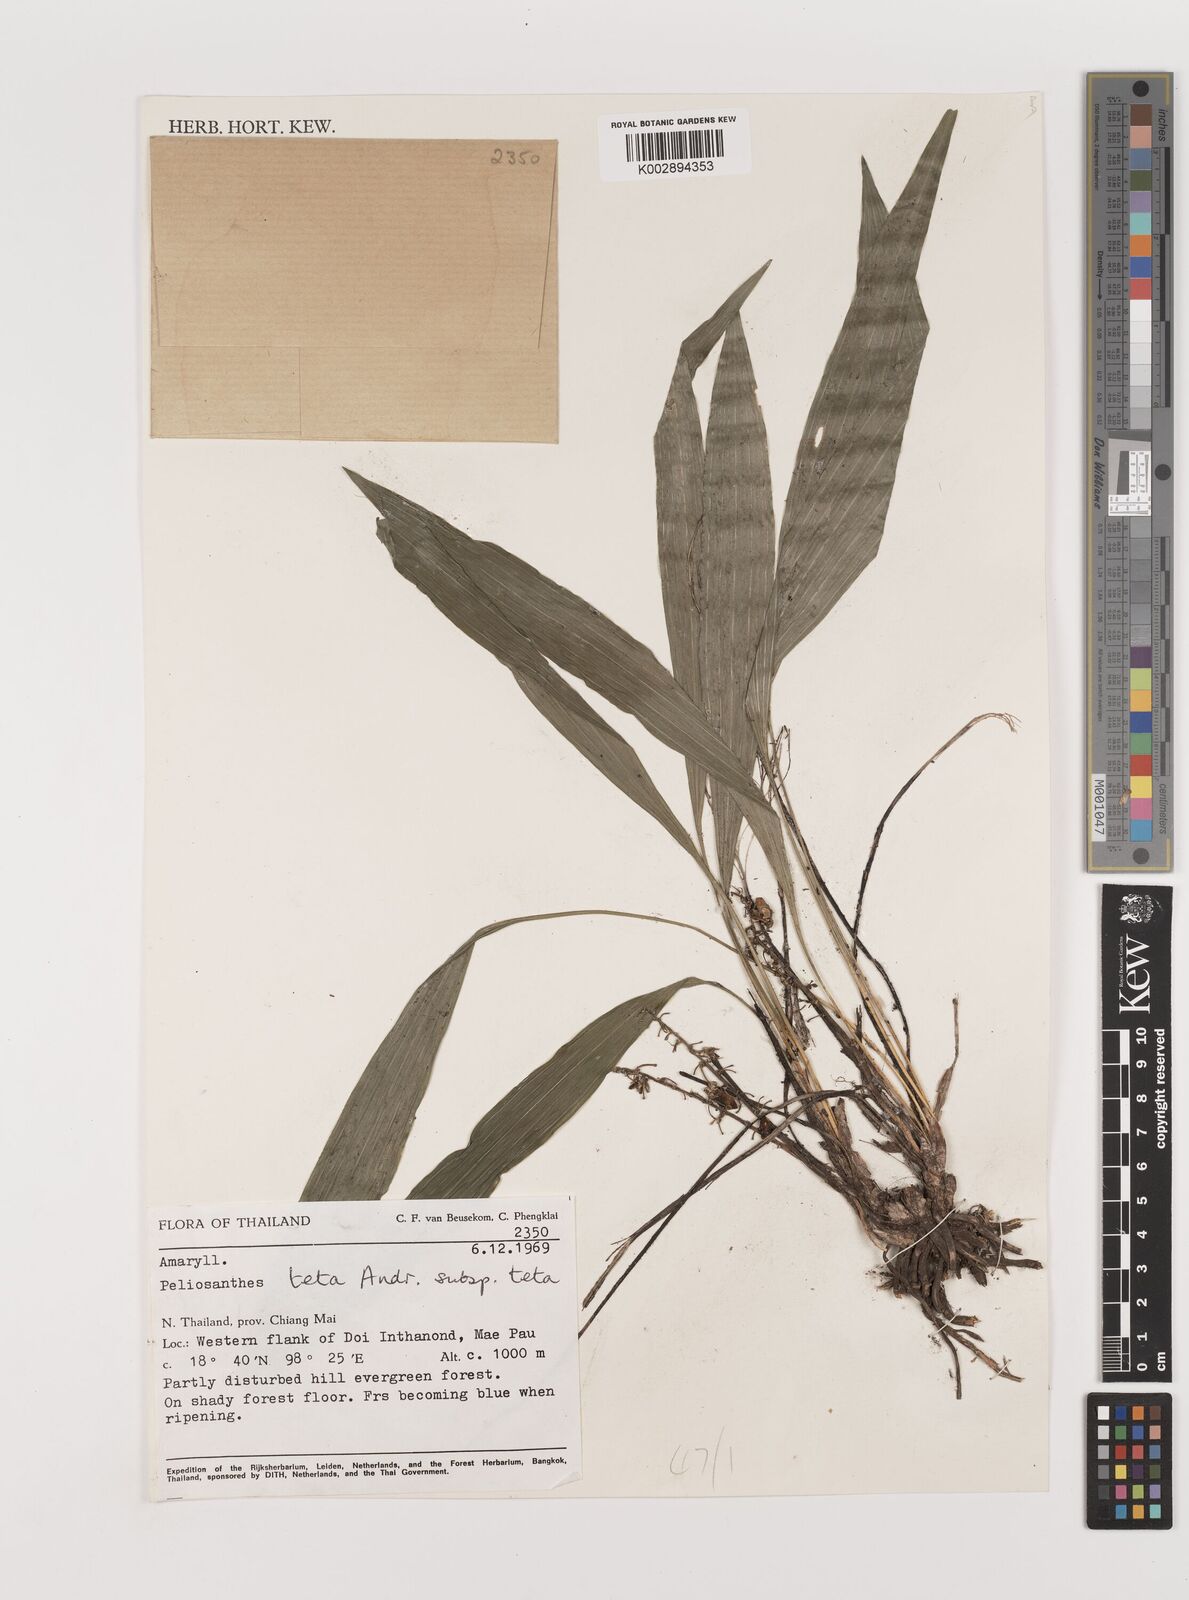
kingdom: Plantae
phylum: Tracheophyta
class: Liliopsida
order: Asparagales
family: Asparagaceae
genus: Peliosanthes
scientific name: Peliosanthes teta
